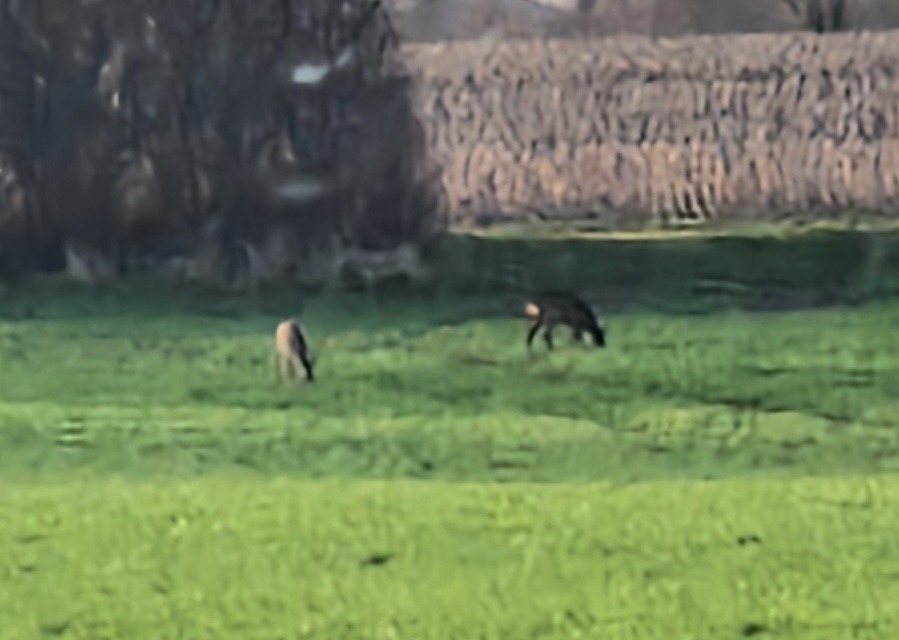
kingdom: Animalia
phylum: Chordata
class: Mammalia
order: Artiodactyla
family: Cervidae
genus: Capreolus
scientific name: Capreolus capreolus
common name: Rådyr
